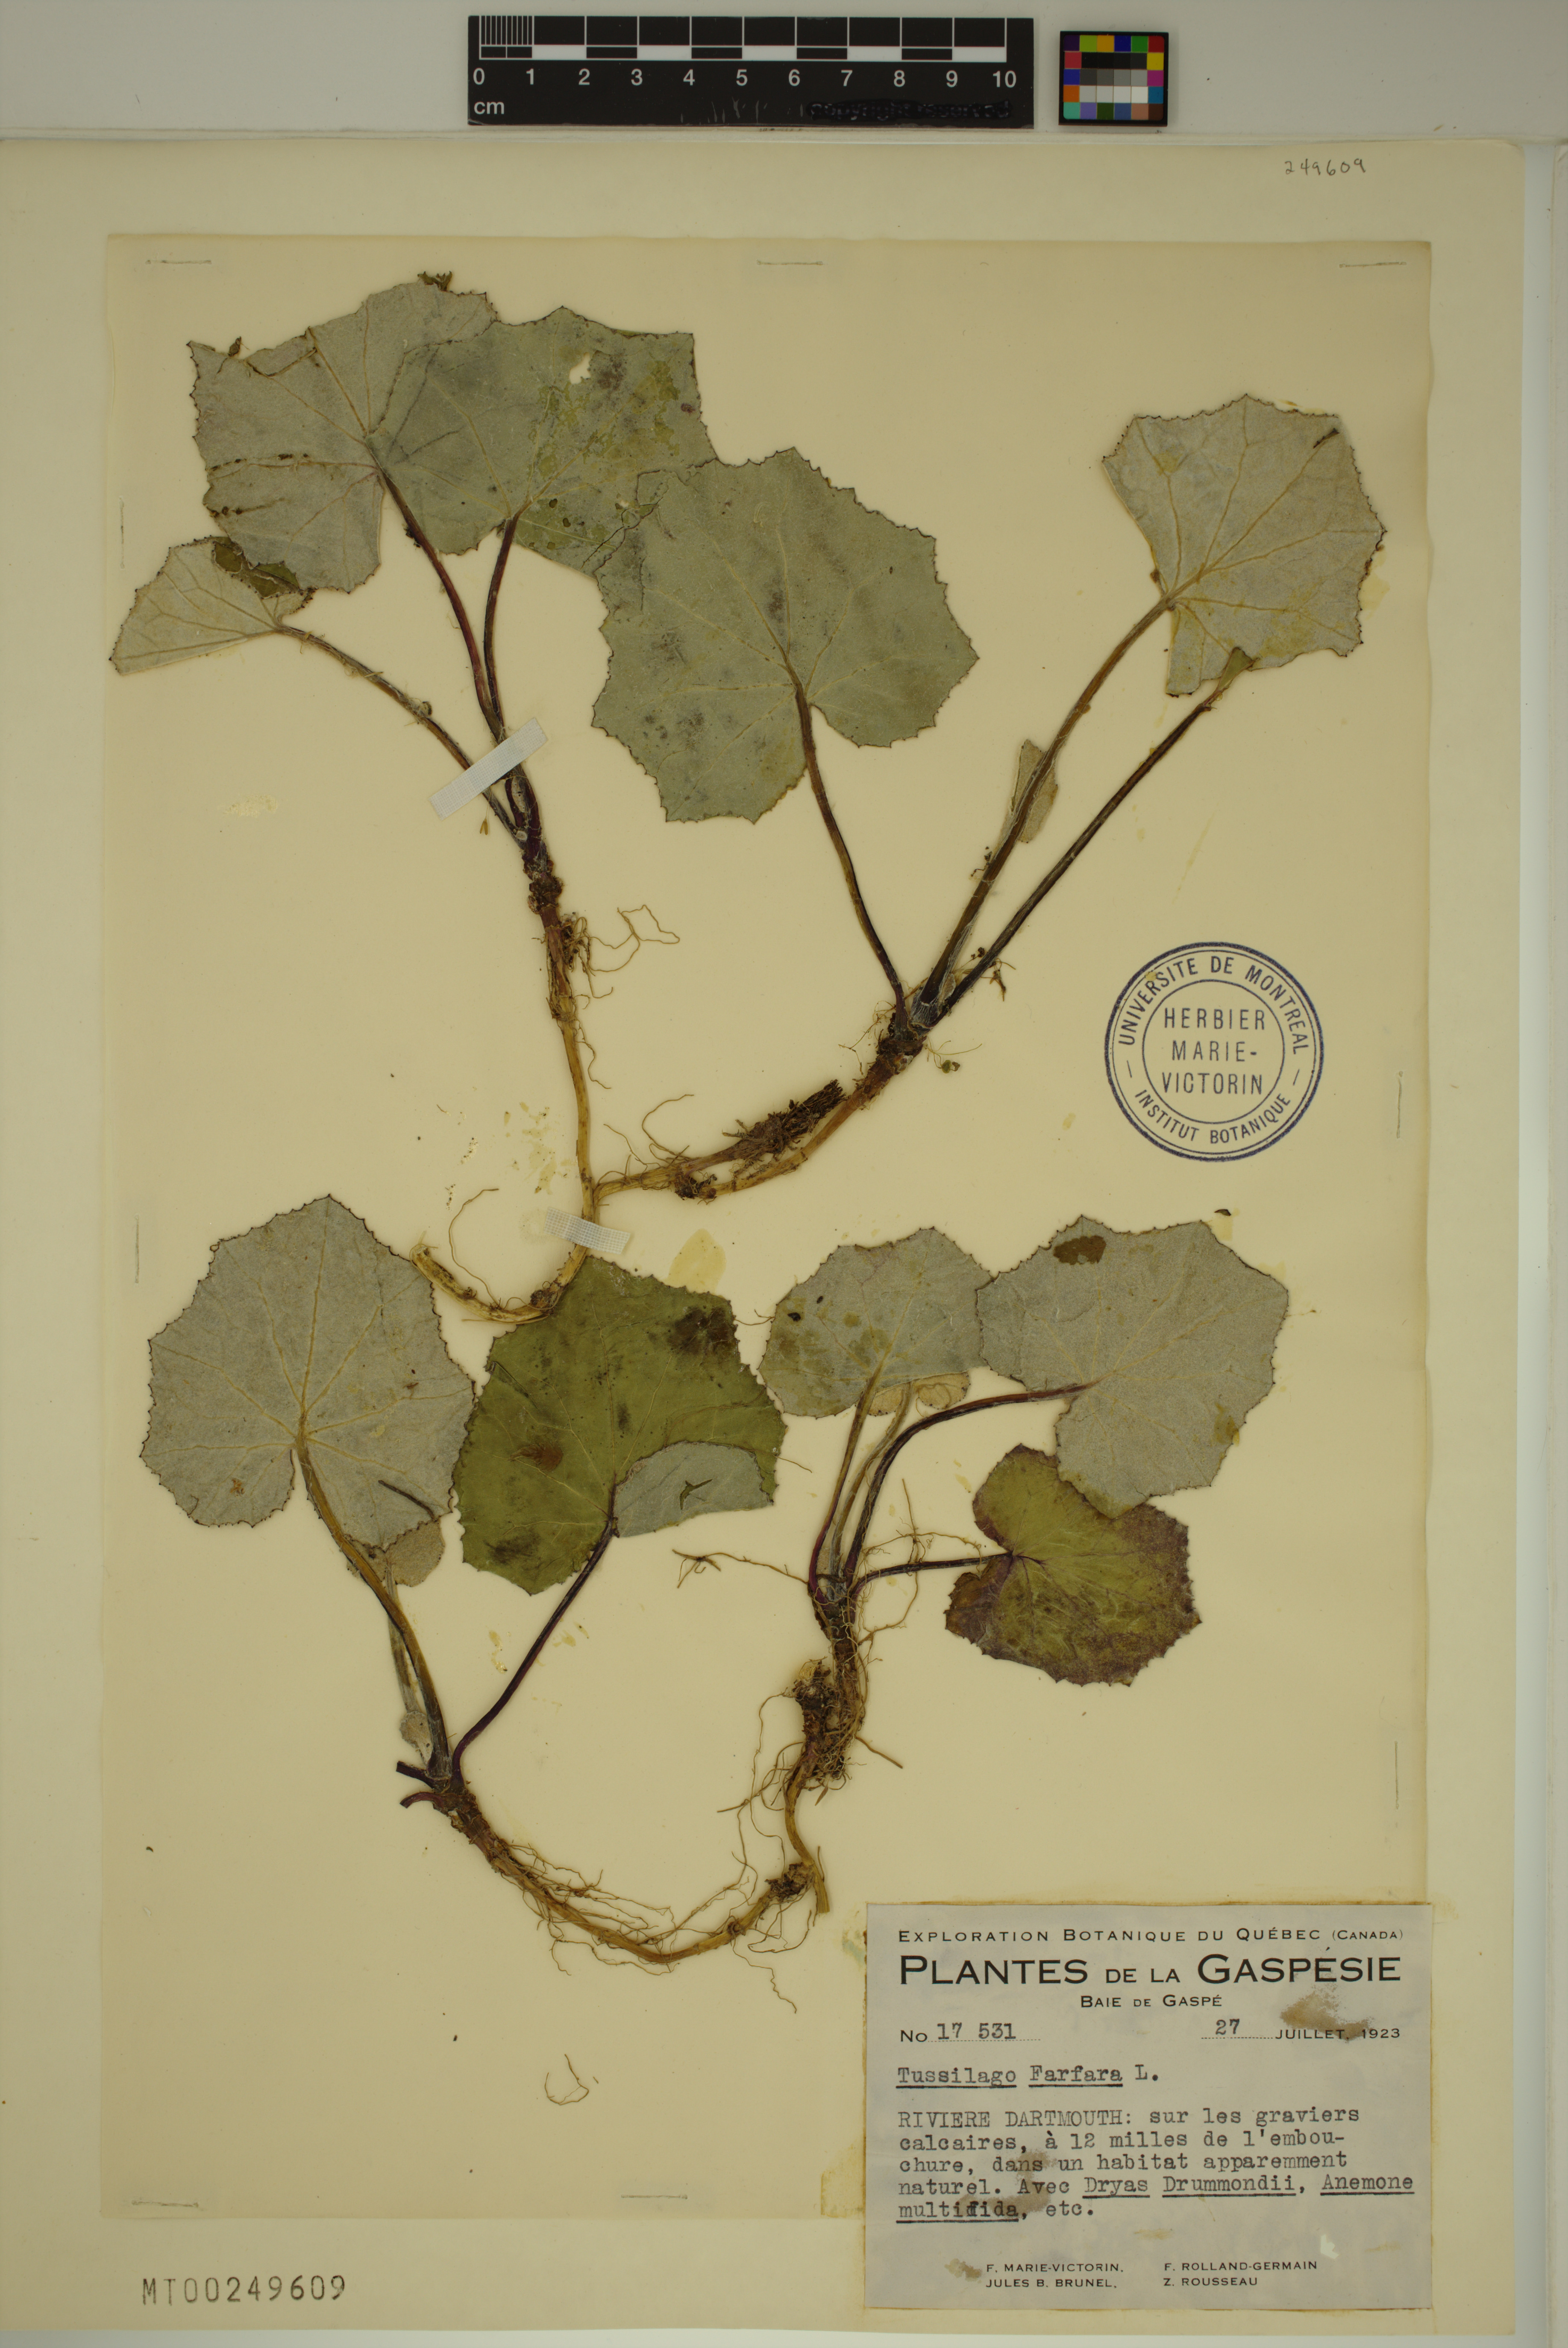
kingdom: Plantae
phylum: Tracheophyta
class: Magnoliopsida
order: Asterales
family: Asteraceae
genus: Tussilago
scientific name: Tussilago farfara
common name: Coltsfoot
